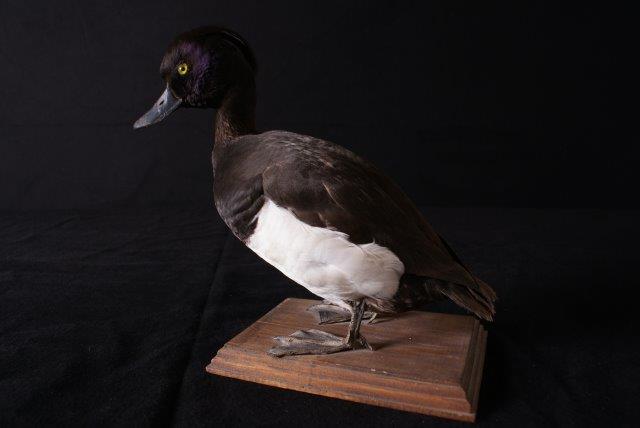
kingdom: Animalia
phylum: Chordata
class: Aves
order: Anseriformes
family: Anatidae
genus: Aythya
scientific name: Aythya fuligula
